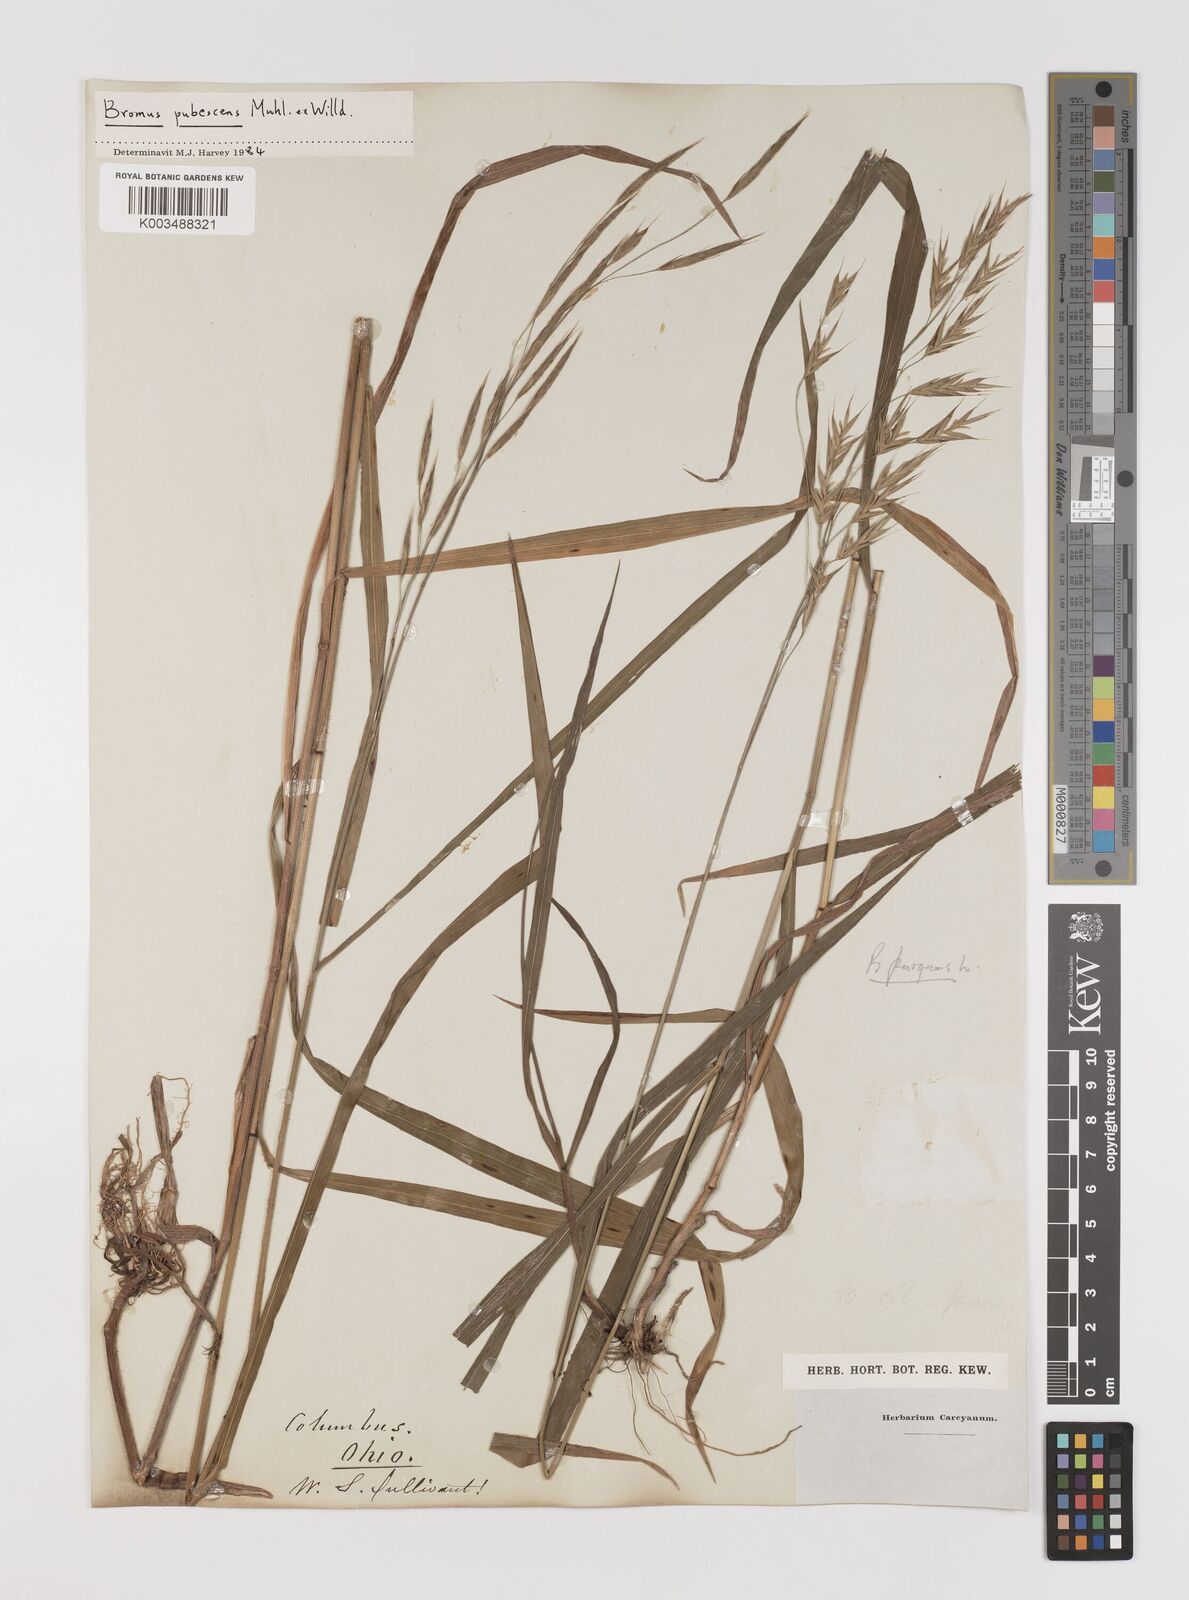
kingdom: Plantae
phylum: Tracheophyta
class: Liliopsida
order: Poales
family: Poaceae
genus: Bromus
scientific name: Bromus pubescens
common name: Hairy wood brome grass
